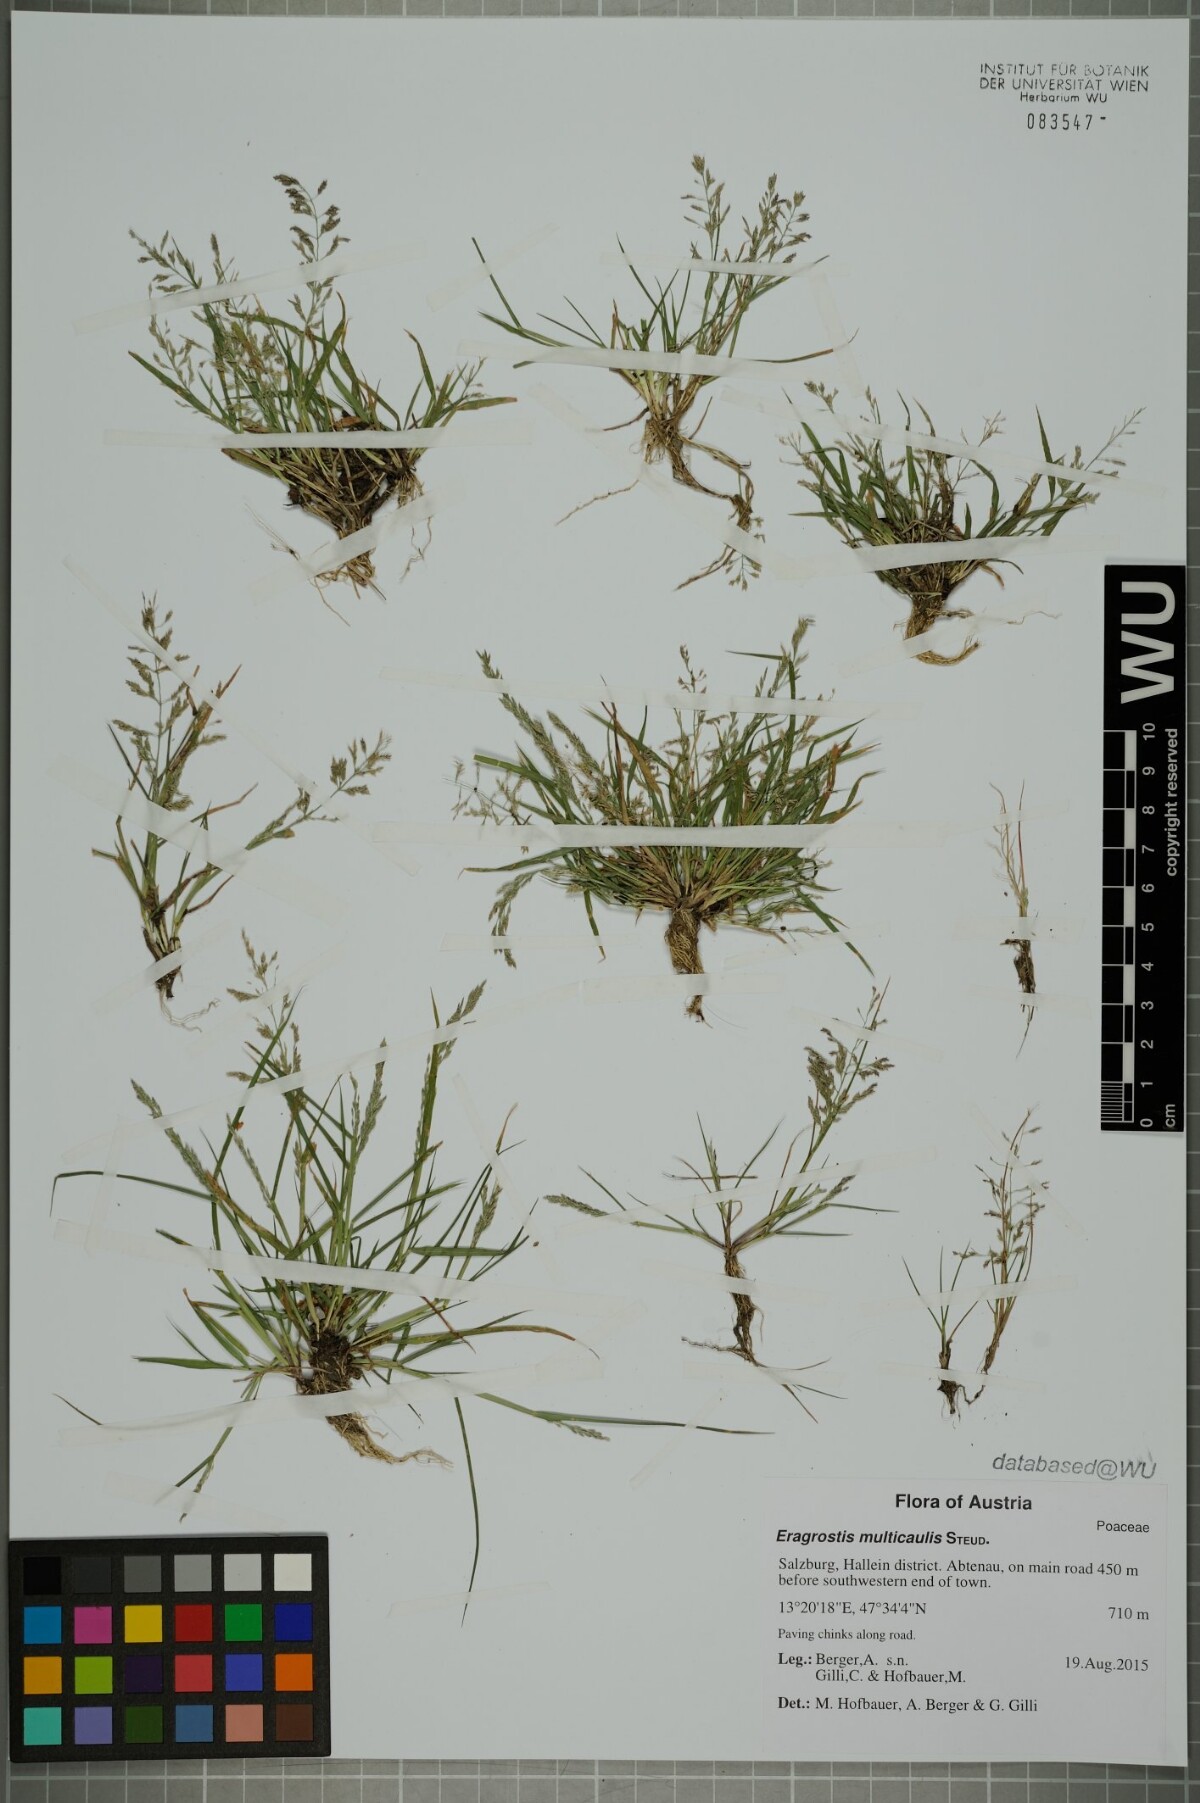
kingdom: Plantae
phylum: Tracheophyta
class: Liliopsida
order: Poales
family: Poaceae
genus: Eragrostis
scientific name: Eragrostis multicaulis
